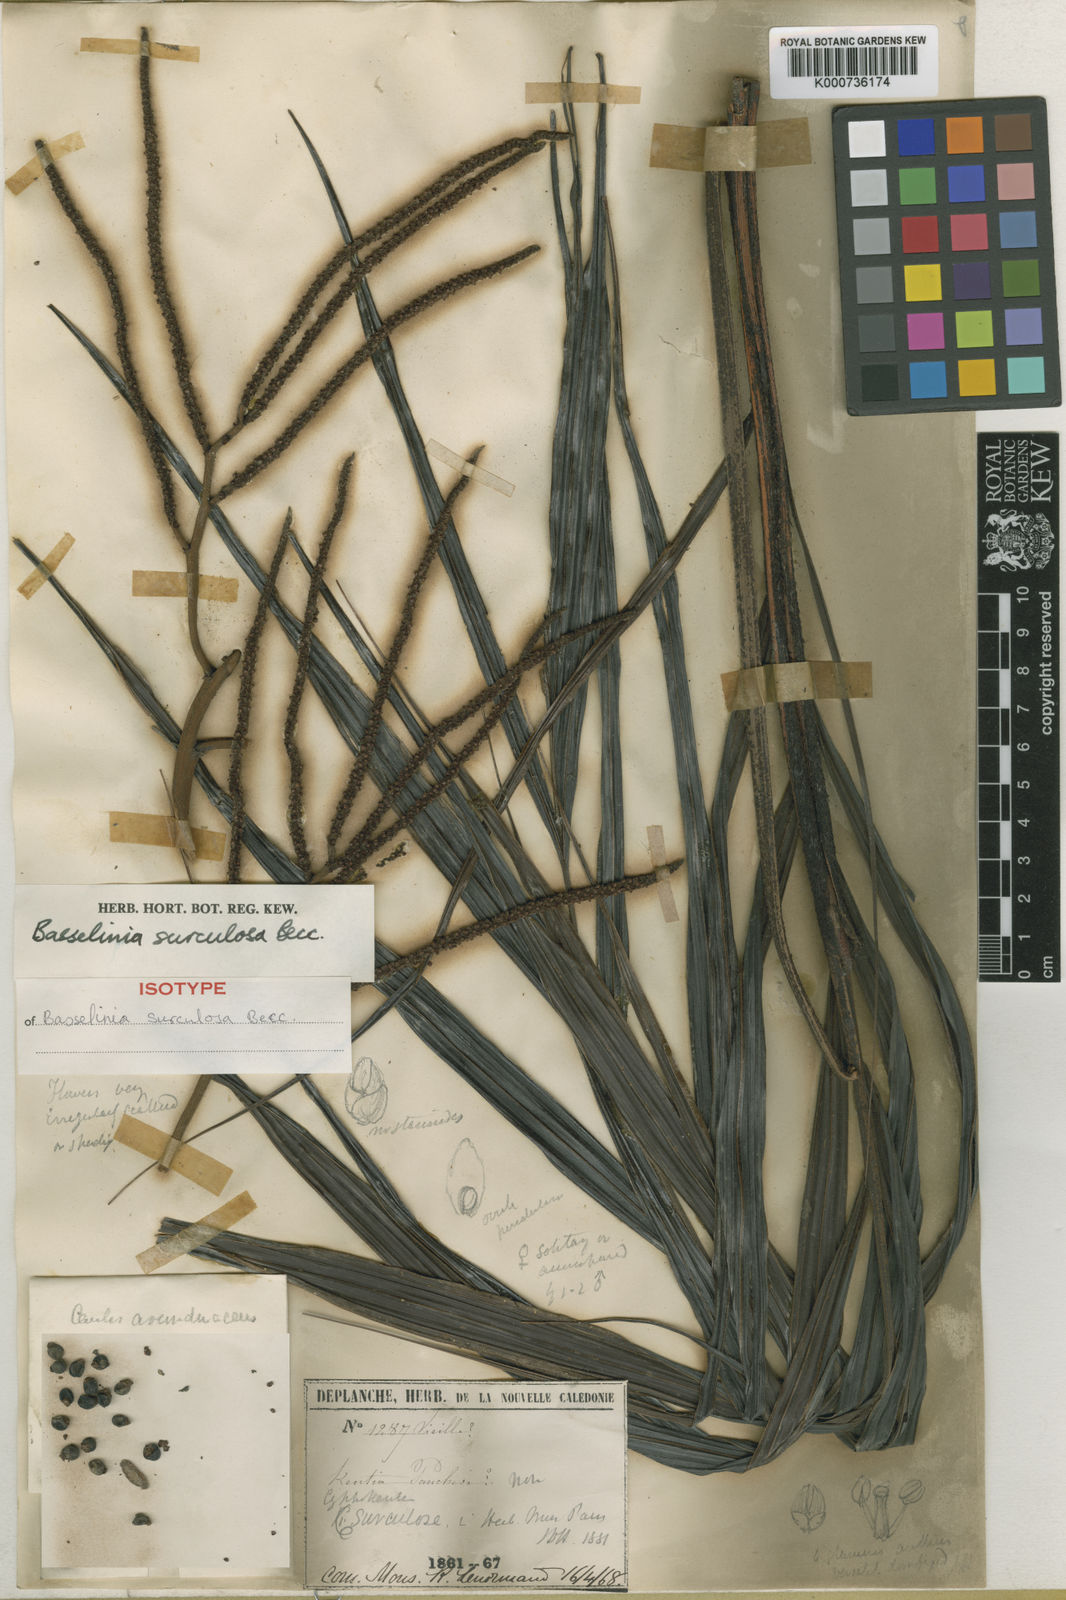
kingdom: Plantae
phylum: Tracheophyta
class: Liliopsida
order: Arecales
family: Arecaceae
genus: Basselinia
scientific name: Basselinia deplanchei
